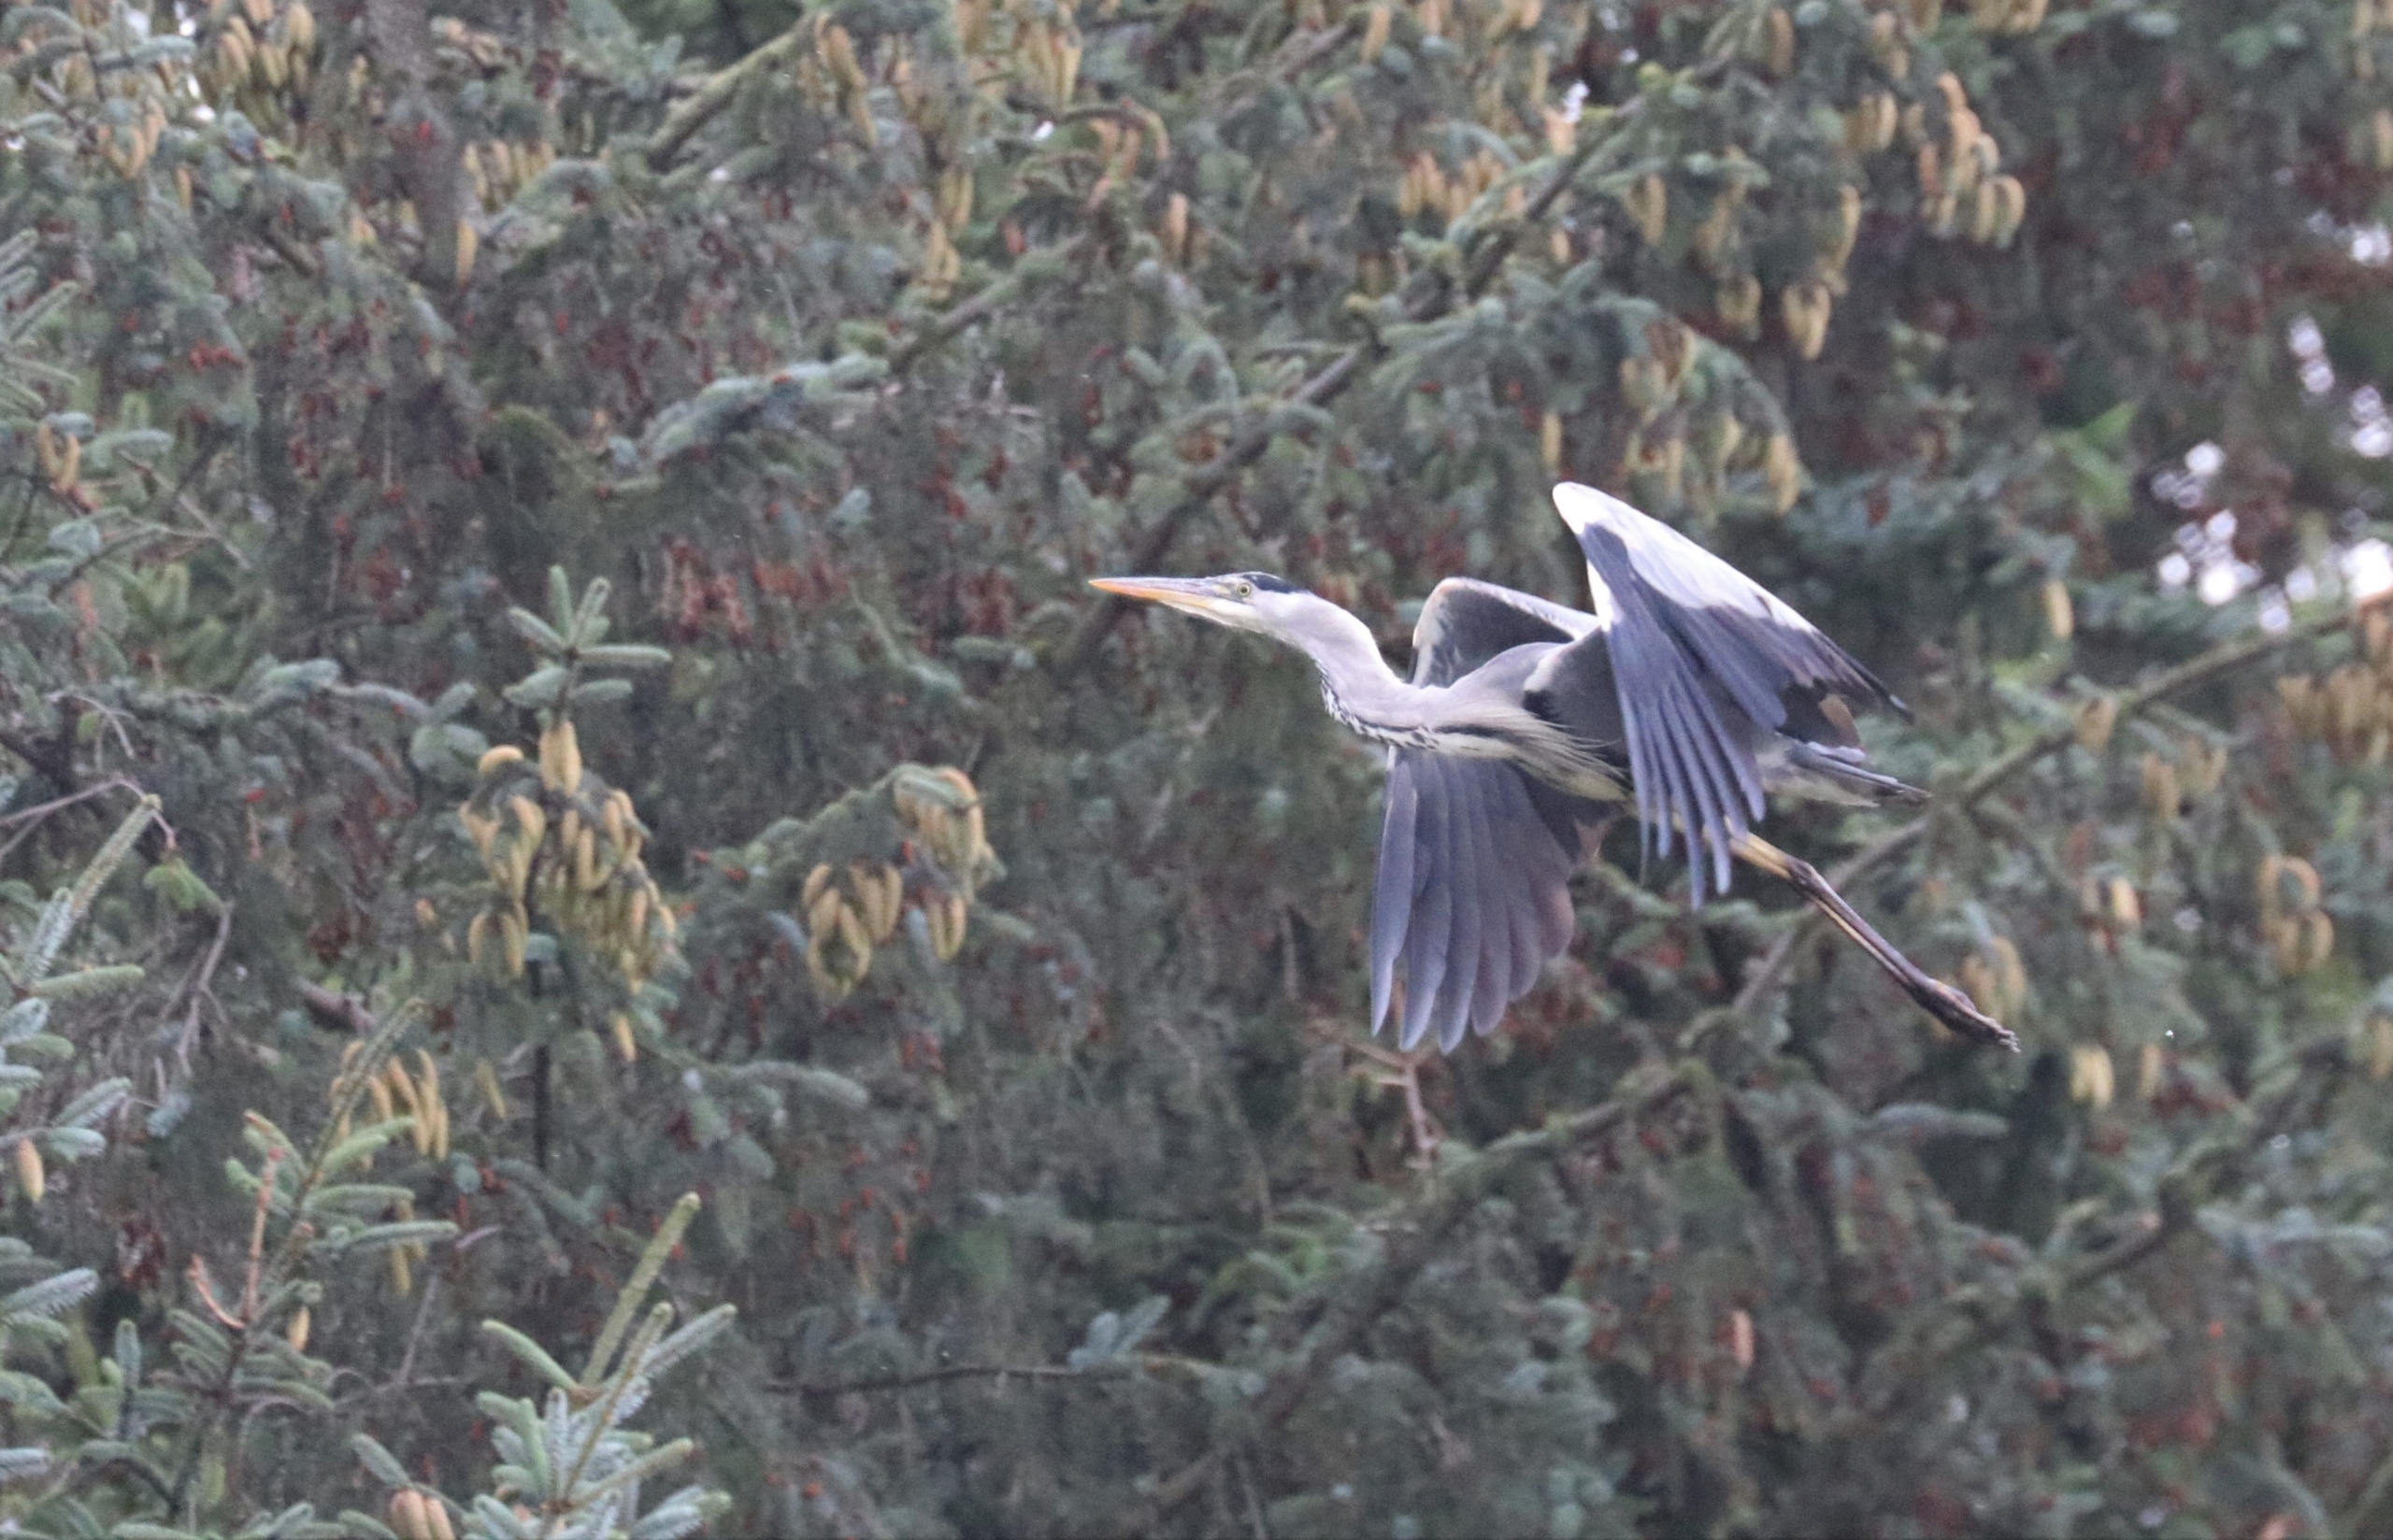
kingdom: Animalia
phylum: Chordata
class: Aves
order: Pelecaniformes
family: Ardeidae
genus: Ardea
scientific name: Ardea cinerea
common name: Fiskehejre
